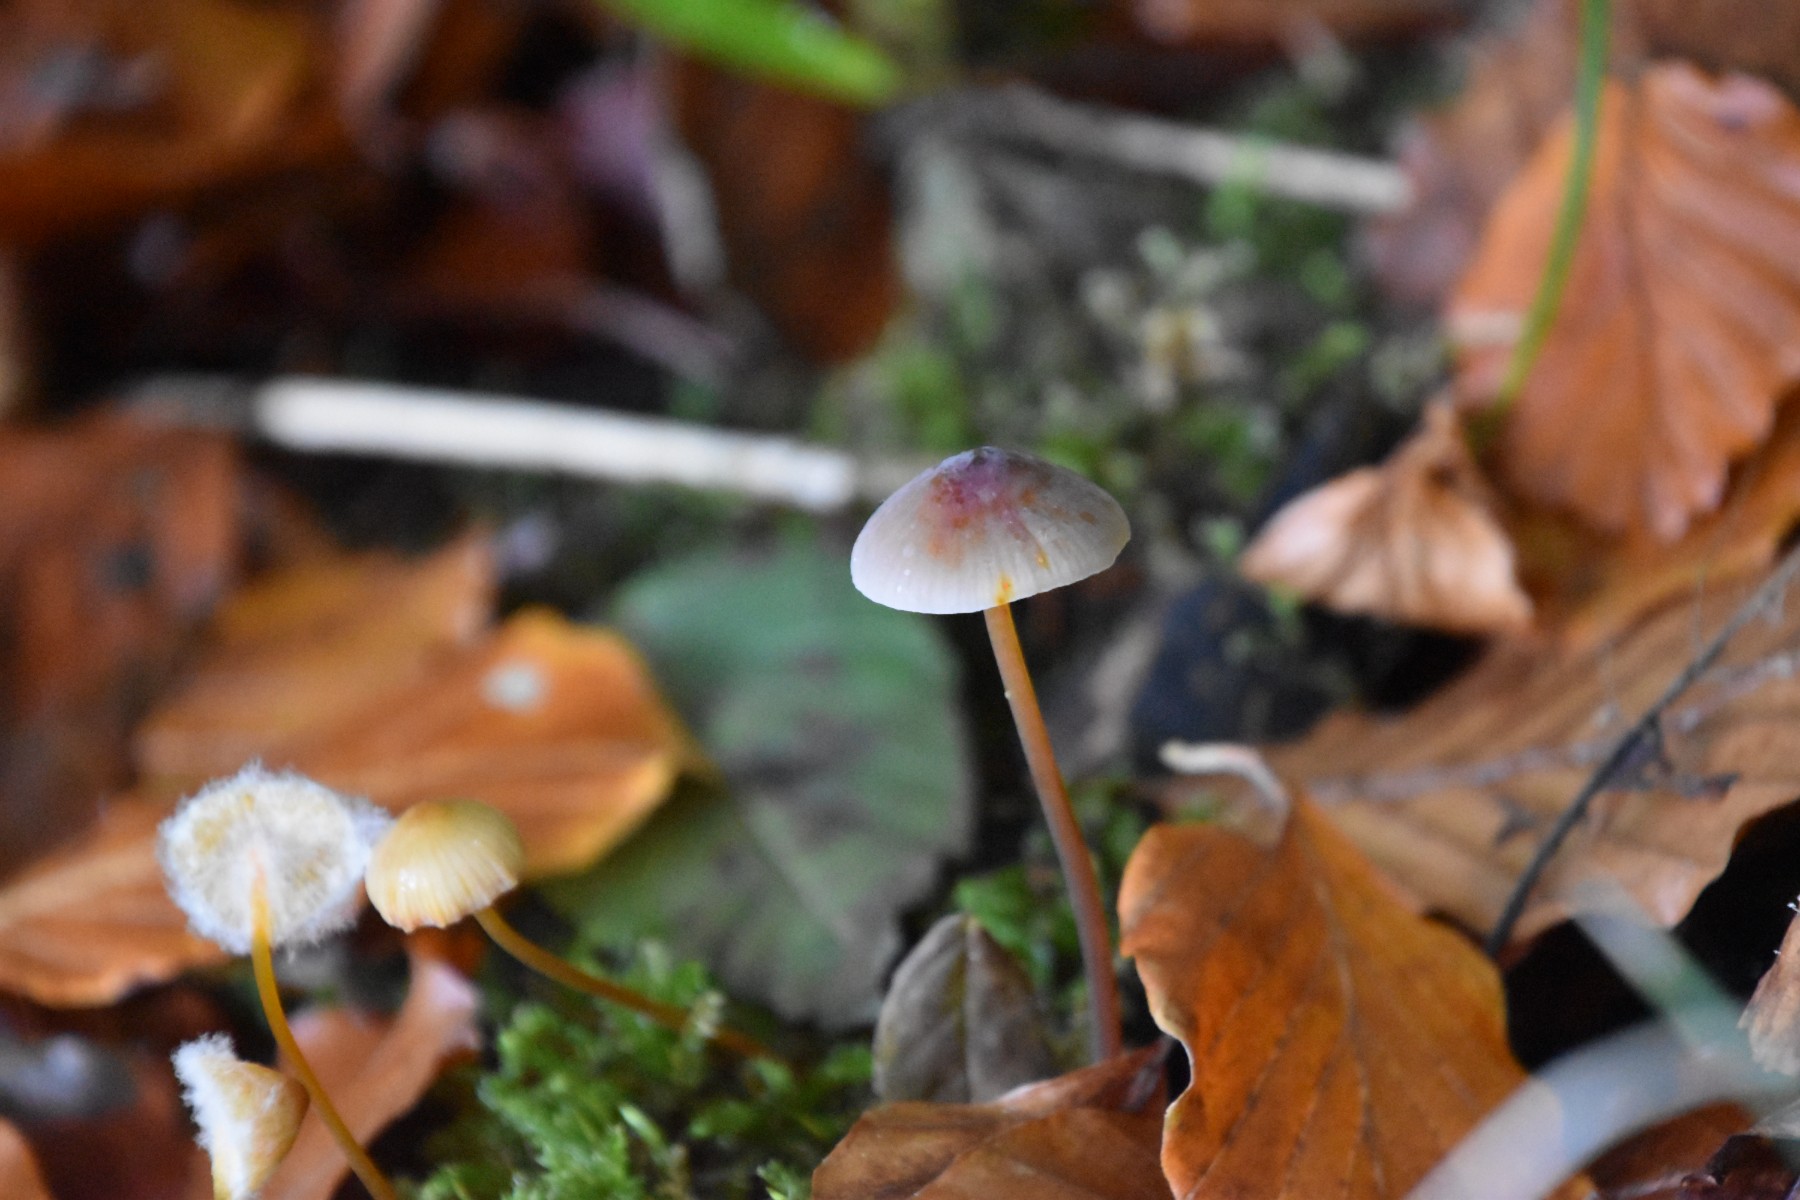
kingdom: Fungi
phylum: Basidiomycota
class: Agaricomycetes
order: Agaricales
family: Mycenaceae
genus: Mycena
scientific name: Mycena crocata
